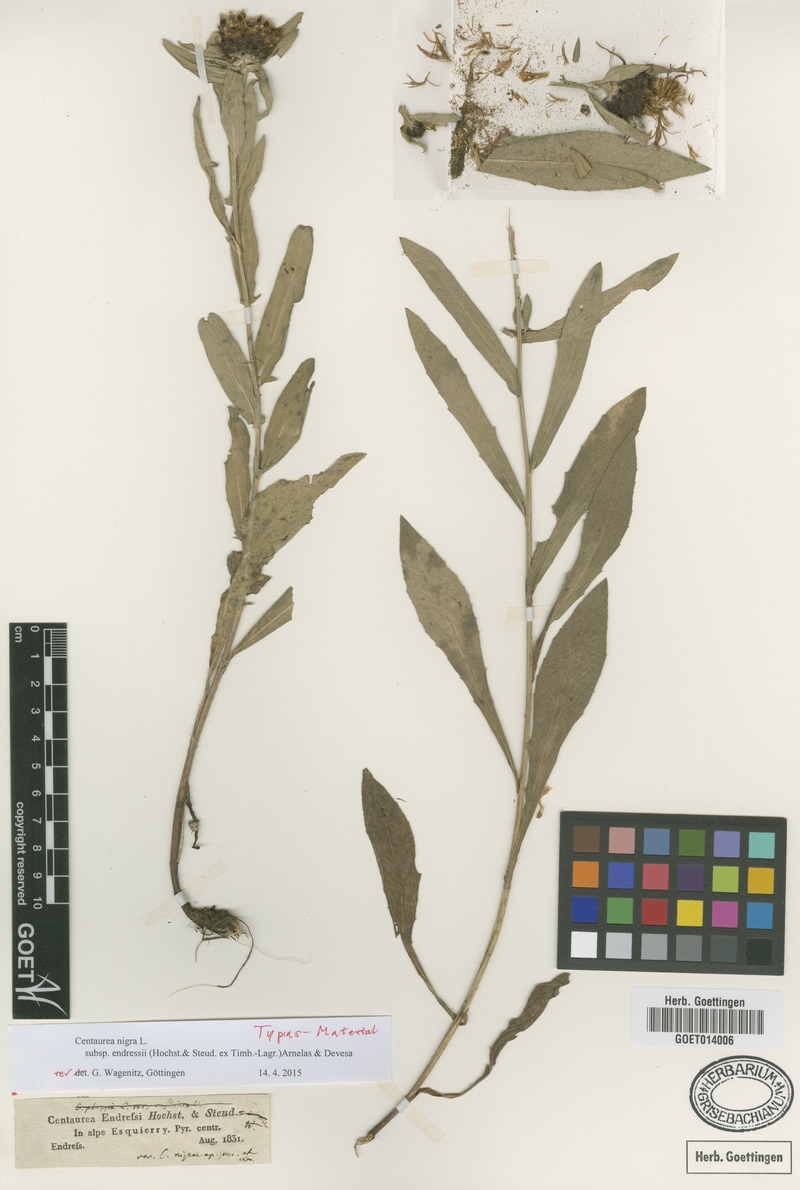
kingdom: Plantae
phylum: Tracheophyta
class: Magnoliopsida
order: Asterales
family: Asteraceae
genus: Centaurea
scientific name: Centaurea nigra
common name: Lesser knapweed
